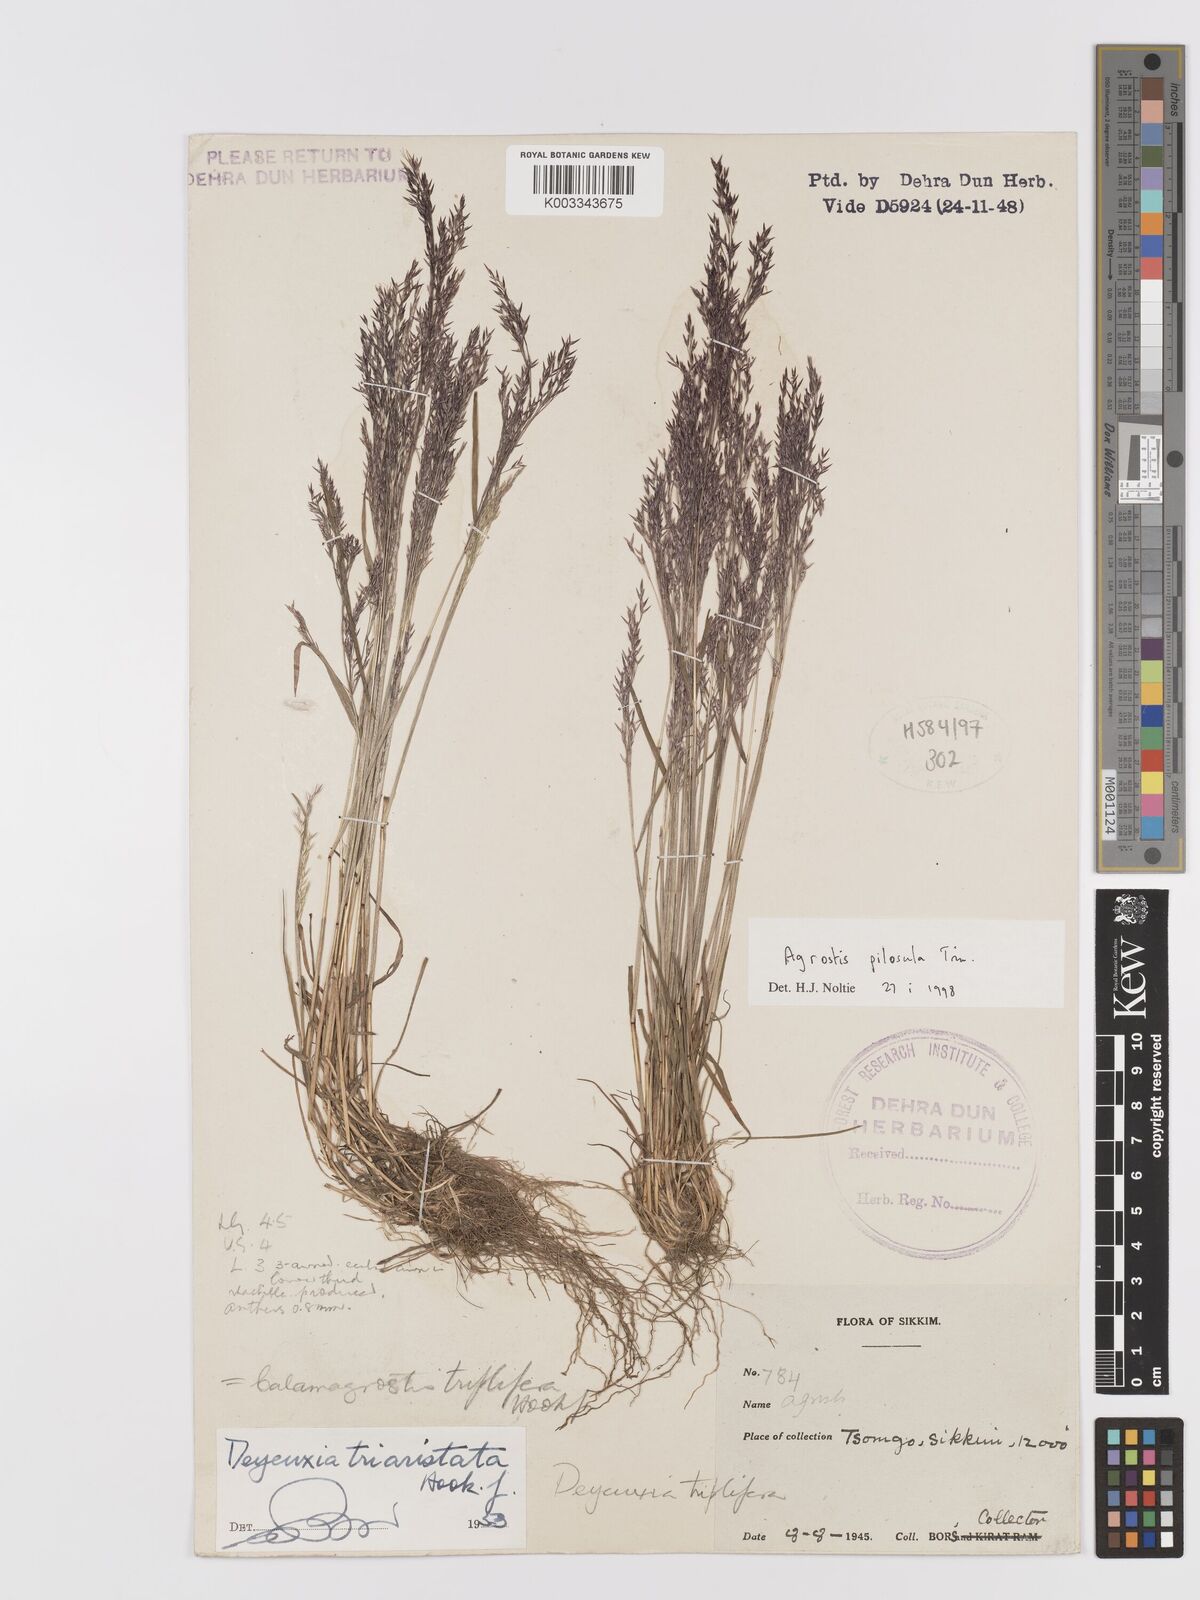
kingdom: Plantae
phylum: Tracheophyta
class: Liliopsida
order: Poales
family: Poaceae
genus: Agrostis
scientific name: Agrostis pilosula
